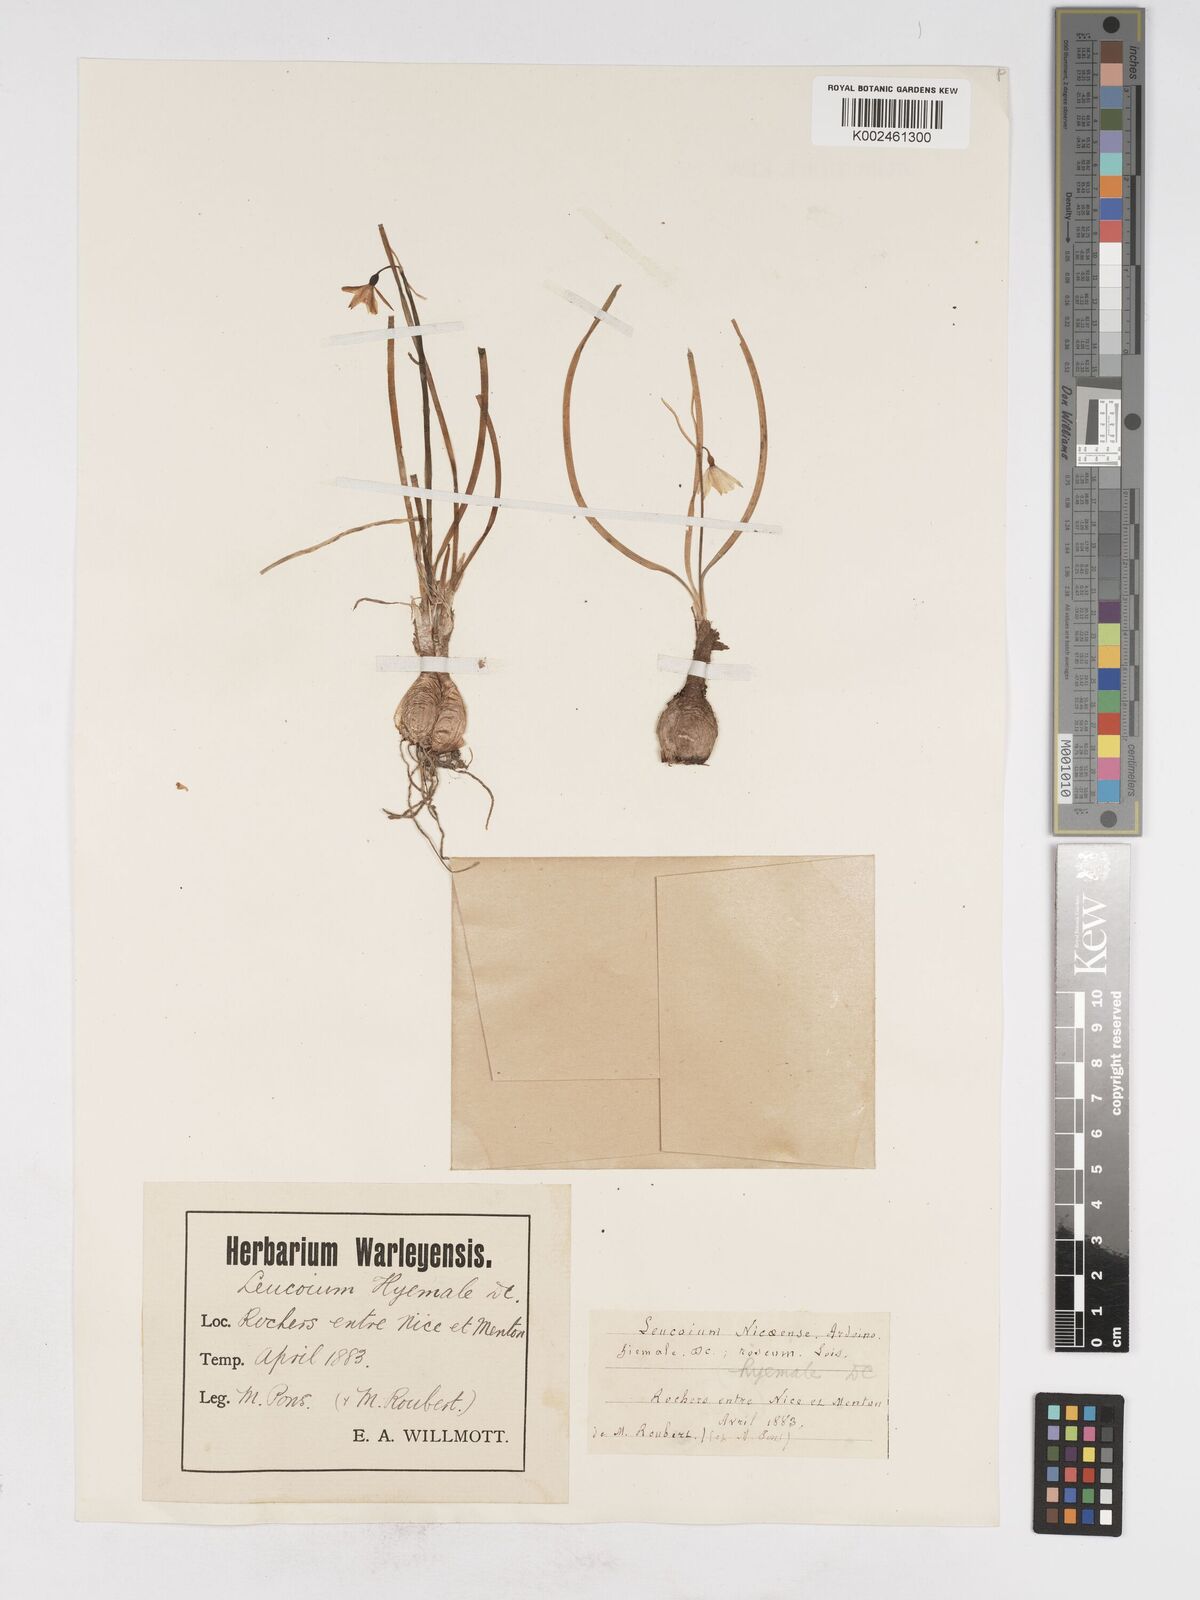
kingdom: Plantae
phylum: Tracheophyta
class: Liliopsida
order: Asparagales
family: Amaryllidaceae
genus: Acis
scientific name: Acis nicaeensis
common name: French snowflake
